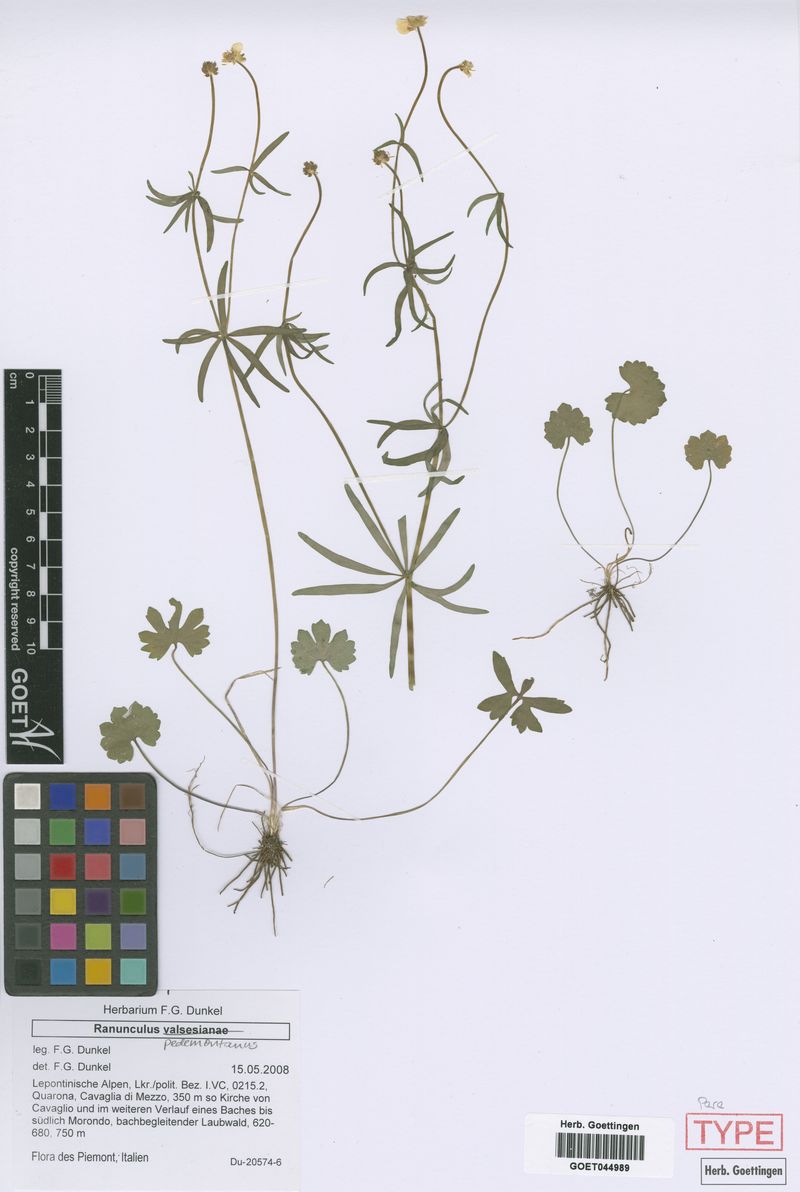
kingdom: Plantae
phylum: Tracheophyta
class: Magnoliopsida
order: Ranunculales
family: Ranunculaceae
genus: Ranunculus
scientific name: Ranunculus pedemontanus
